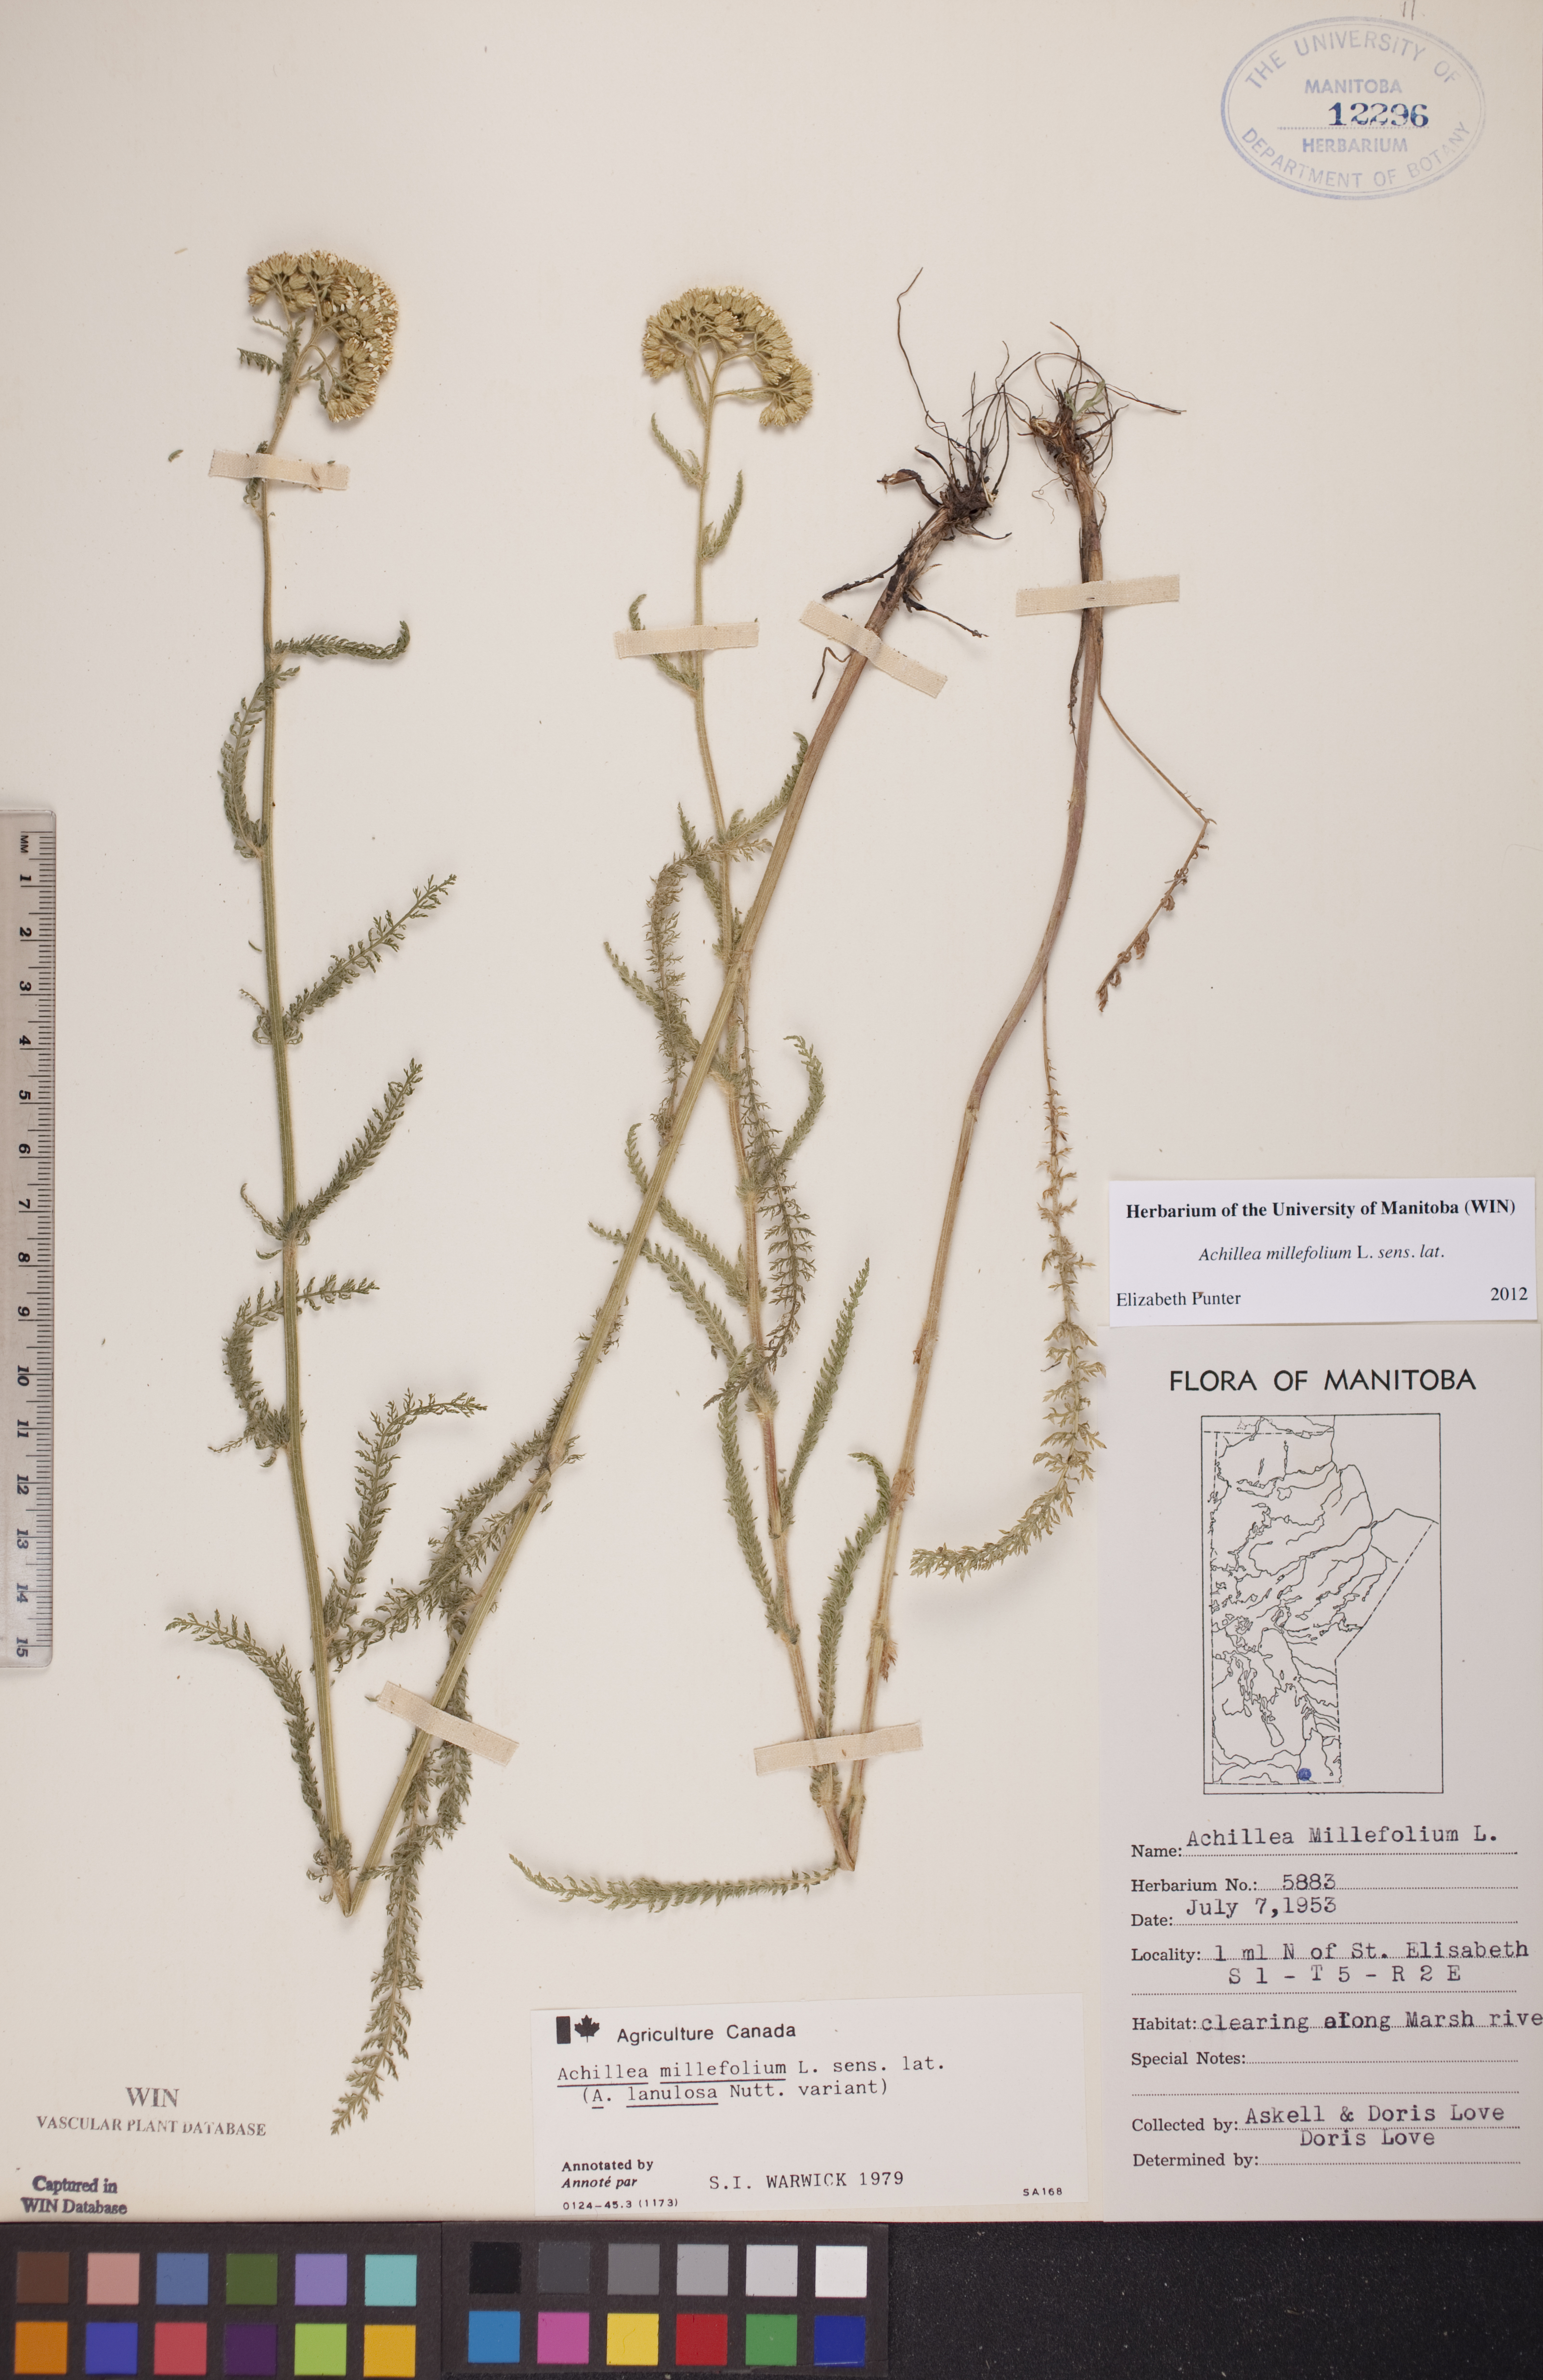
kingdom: Plantae
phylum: Tracheophyta
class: Magnoliopsida
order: Asterales
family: Asteraceae
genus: Achillea
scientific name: Achillea millefolium
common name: Yarrow
